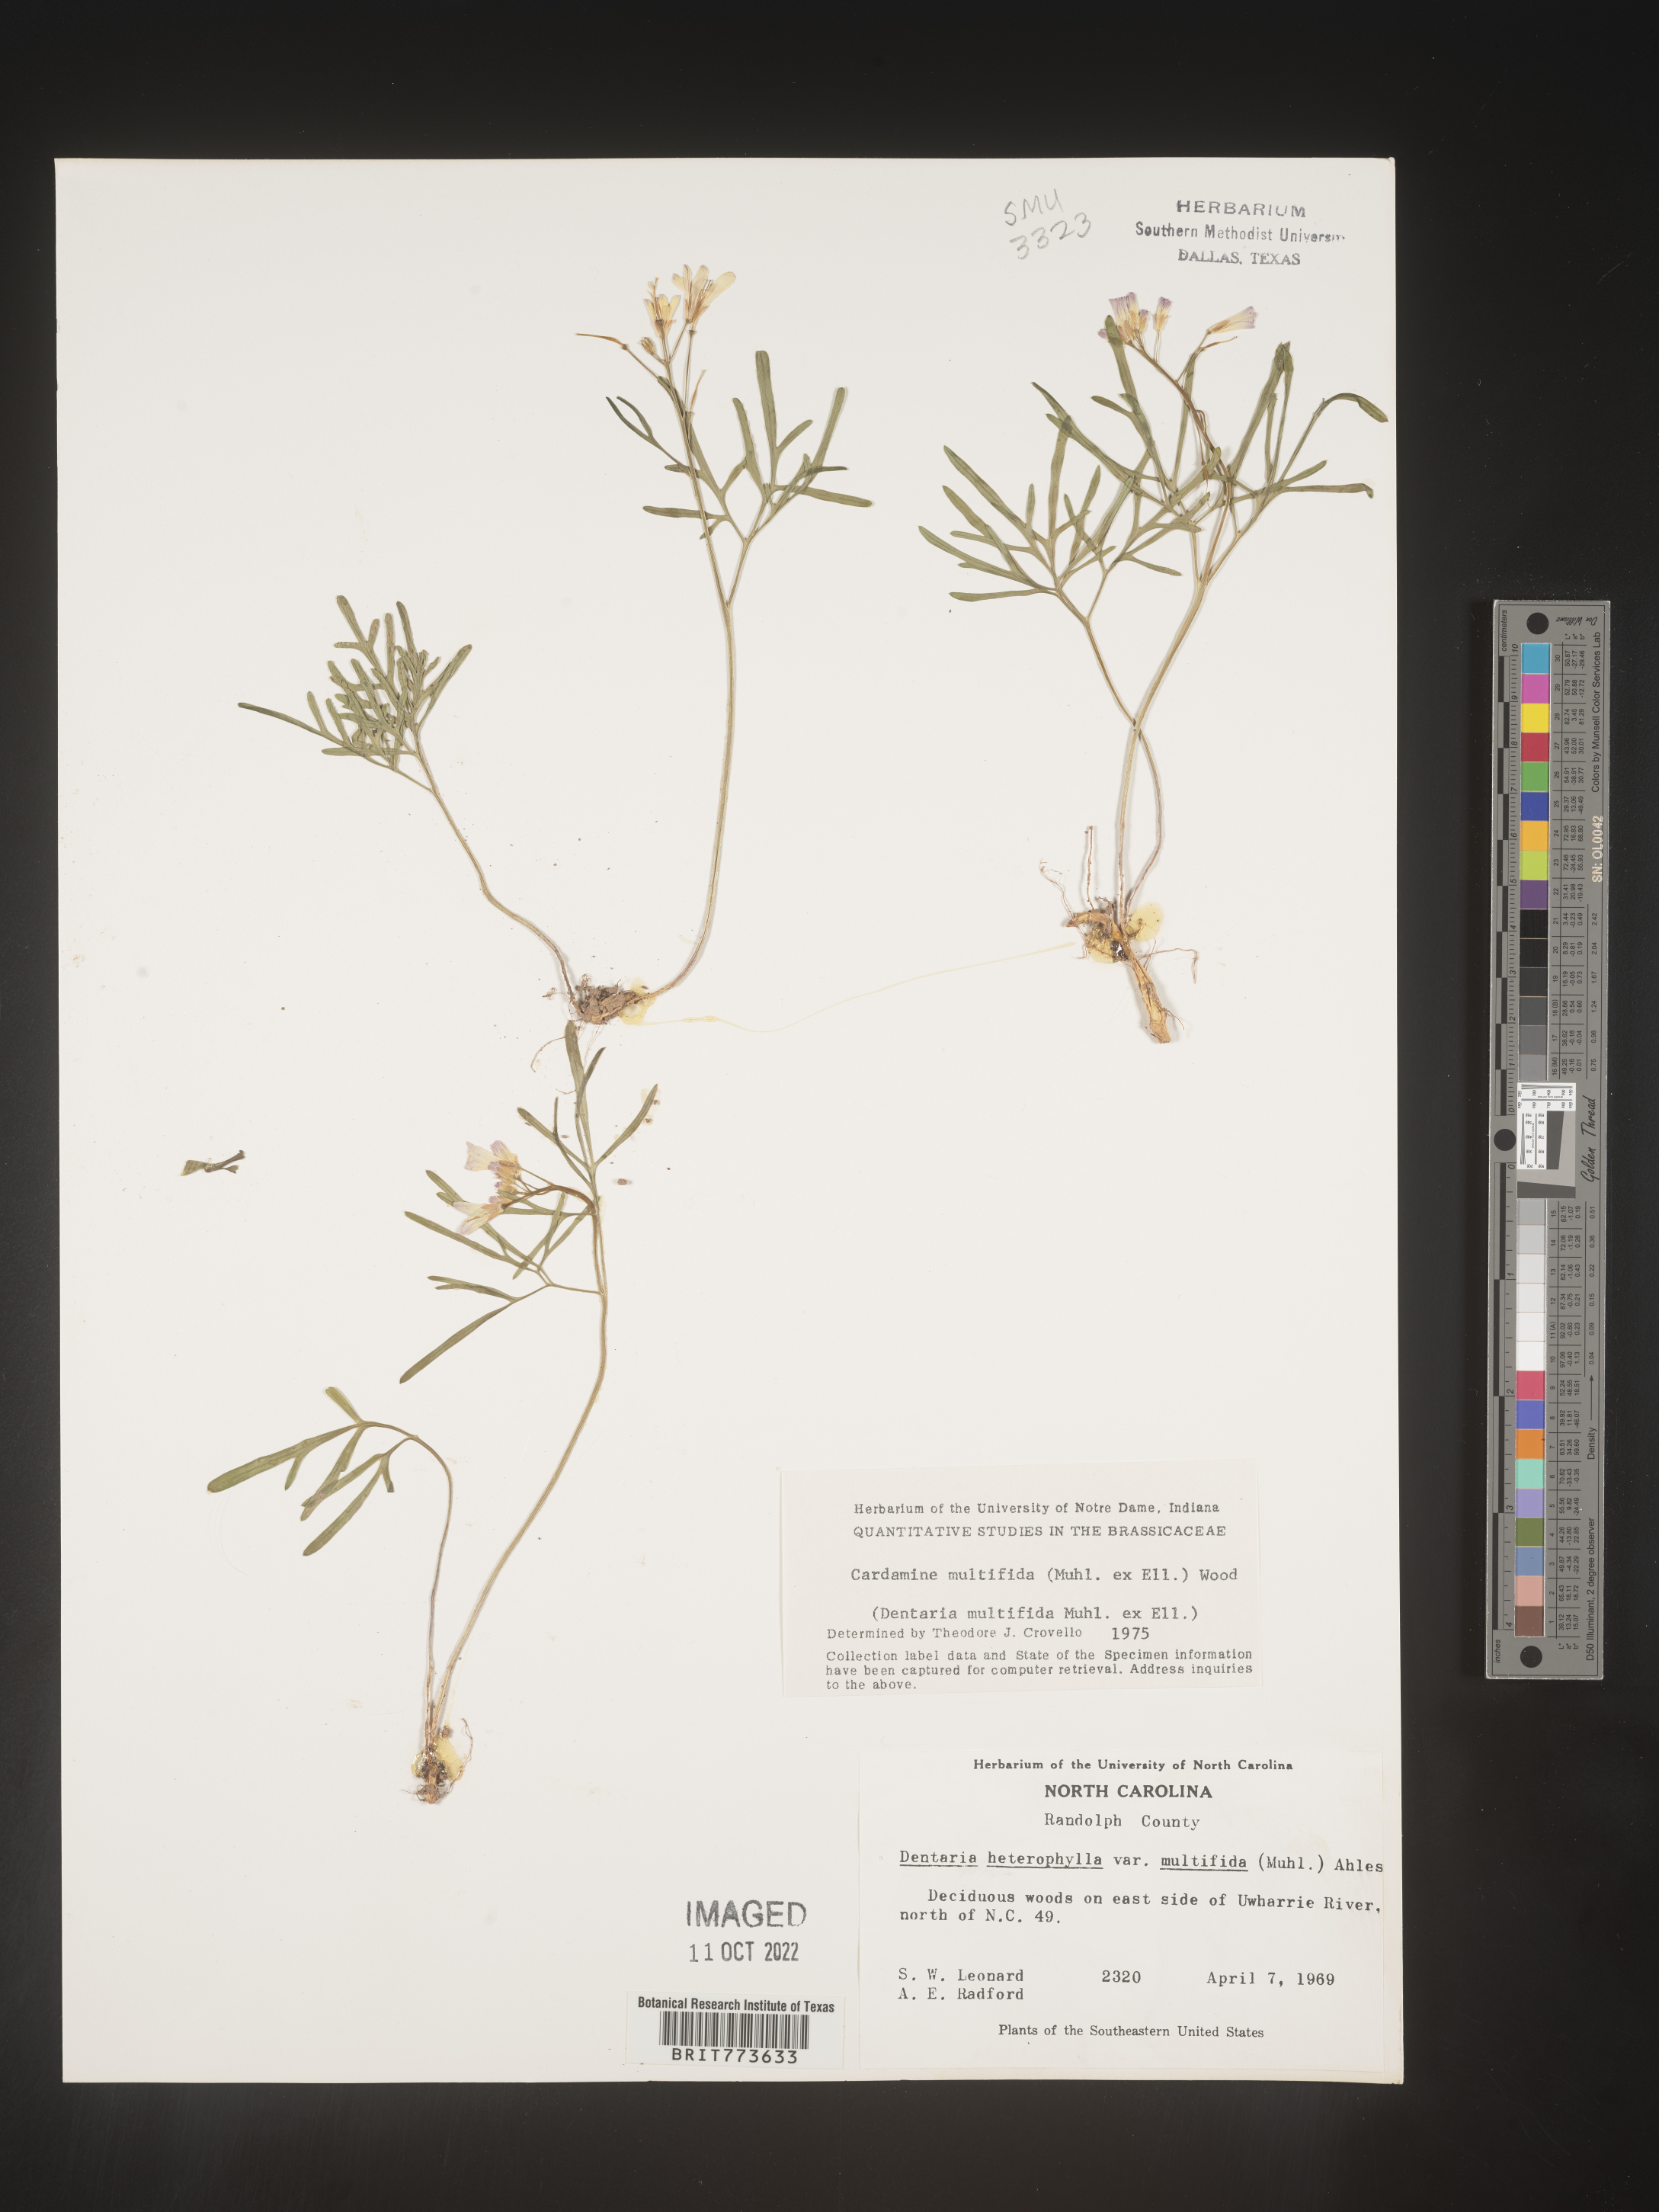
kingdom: Plantae
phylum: Tracheophyta
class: Magnoliopsida
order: Brassicales
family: Brassicaceae
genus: Cardamine
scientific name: Cardamine
